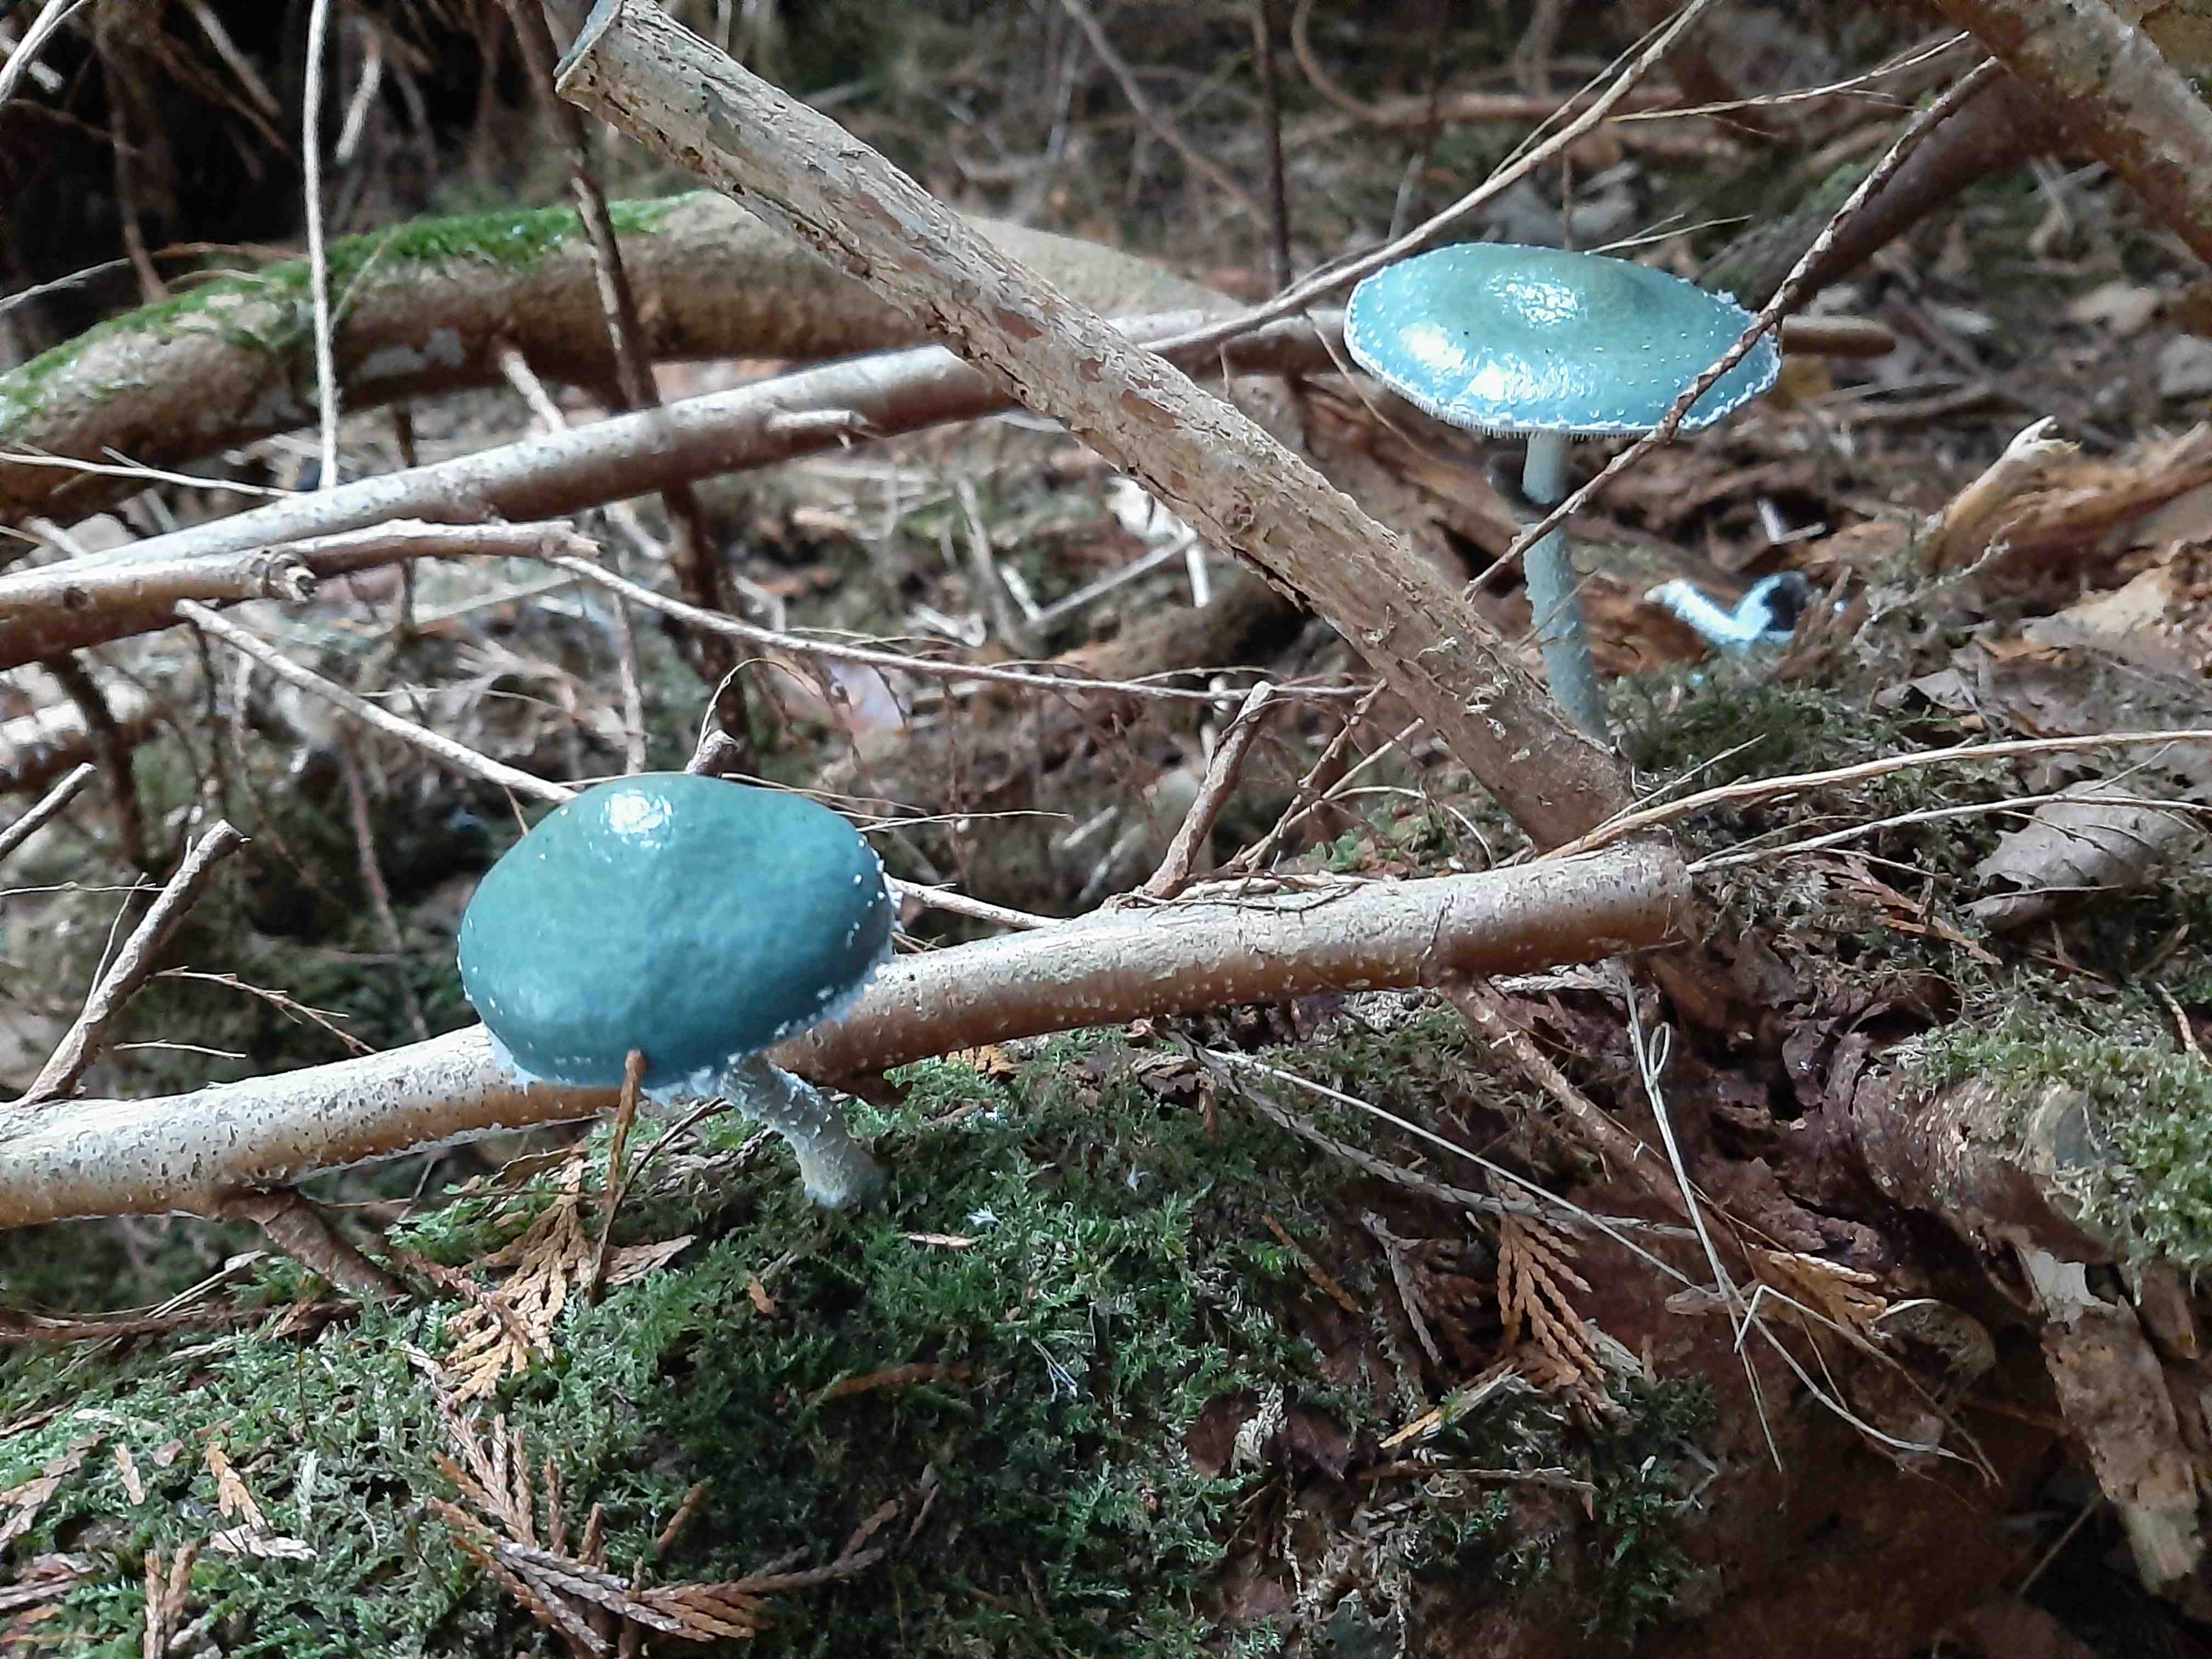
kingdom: Fungi
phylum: Basidiomycota
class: Agaricomycetes
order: Agaricales
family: Strophariaceae
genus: Stropharia
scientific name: Stropharia aeruginosa
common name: spanskgrøn bredblad
